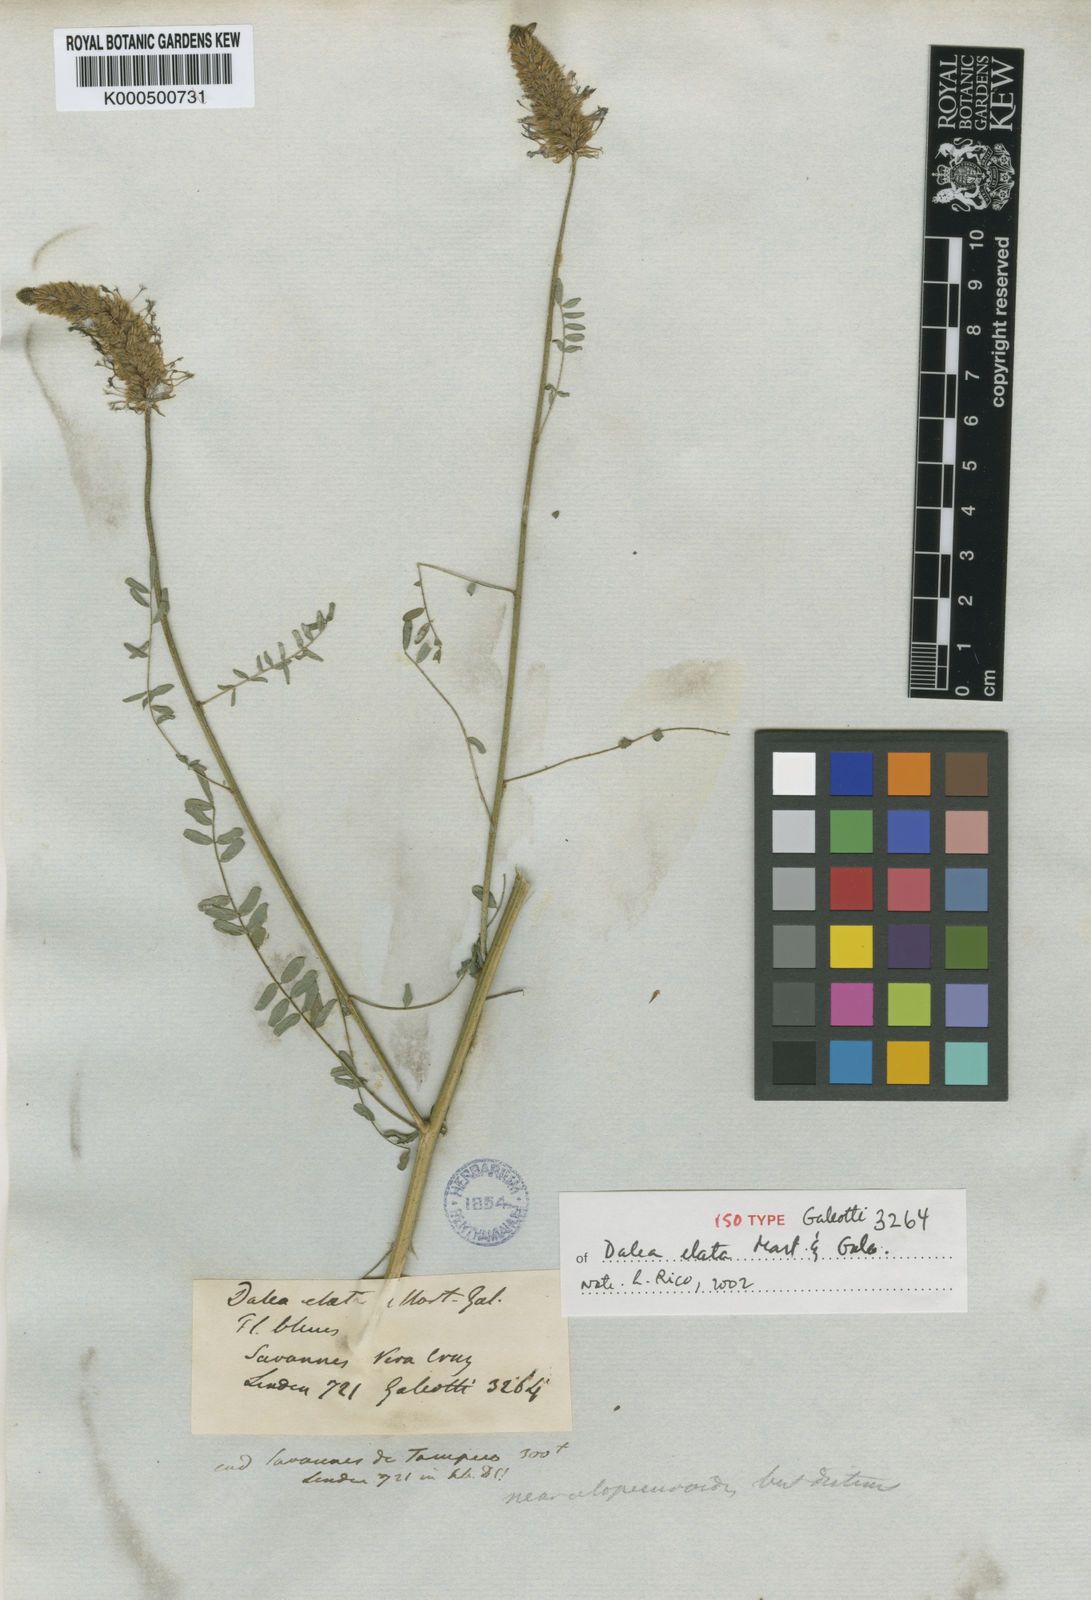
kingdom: Plantae
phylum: Tracheophyta
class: Magnoliopsida
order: Fabales
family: Fabaceae
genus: Dalea
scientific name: Dalea leporina
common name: Foxtail dalea
